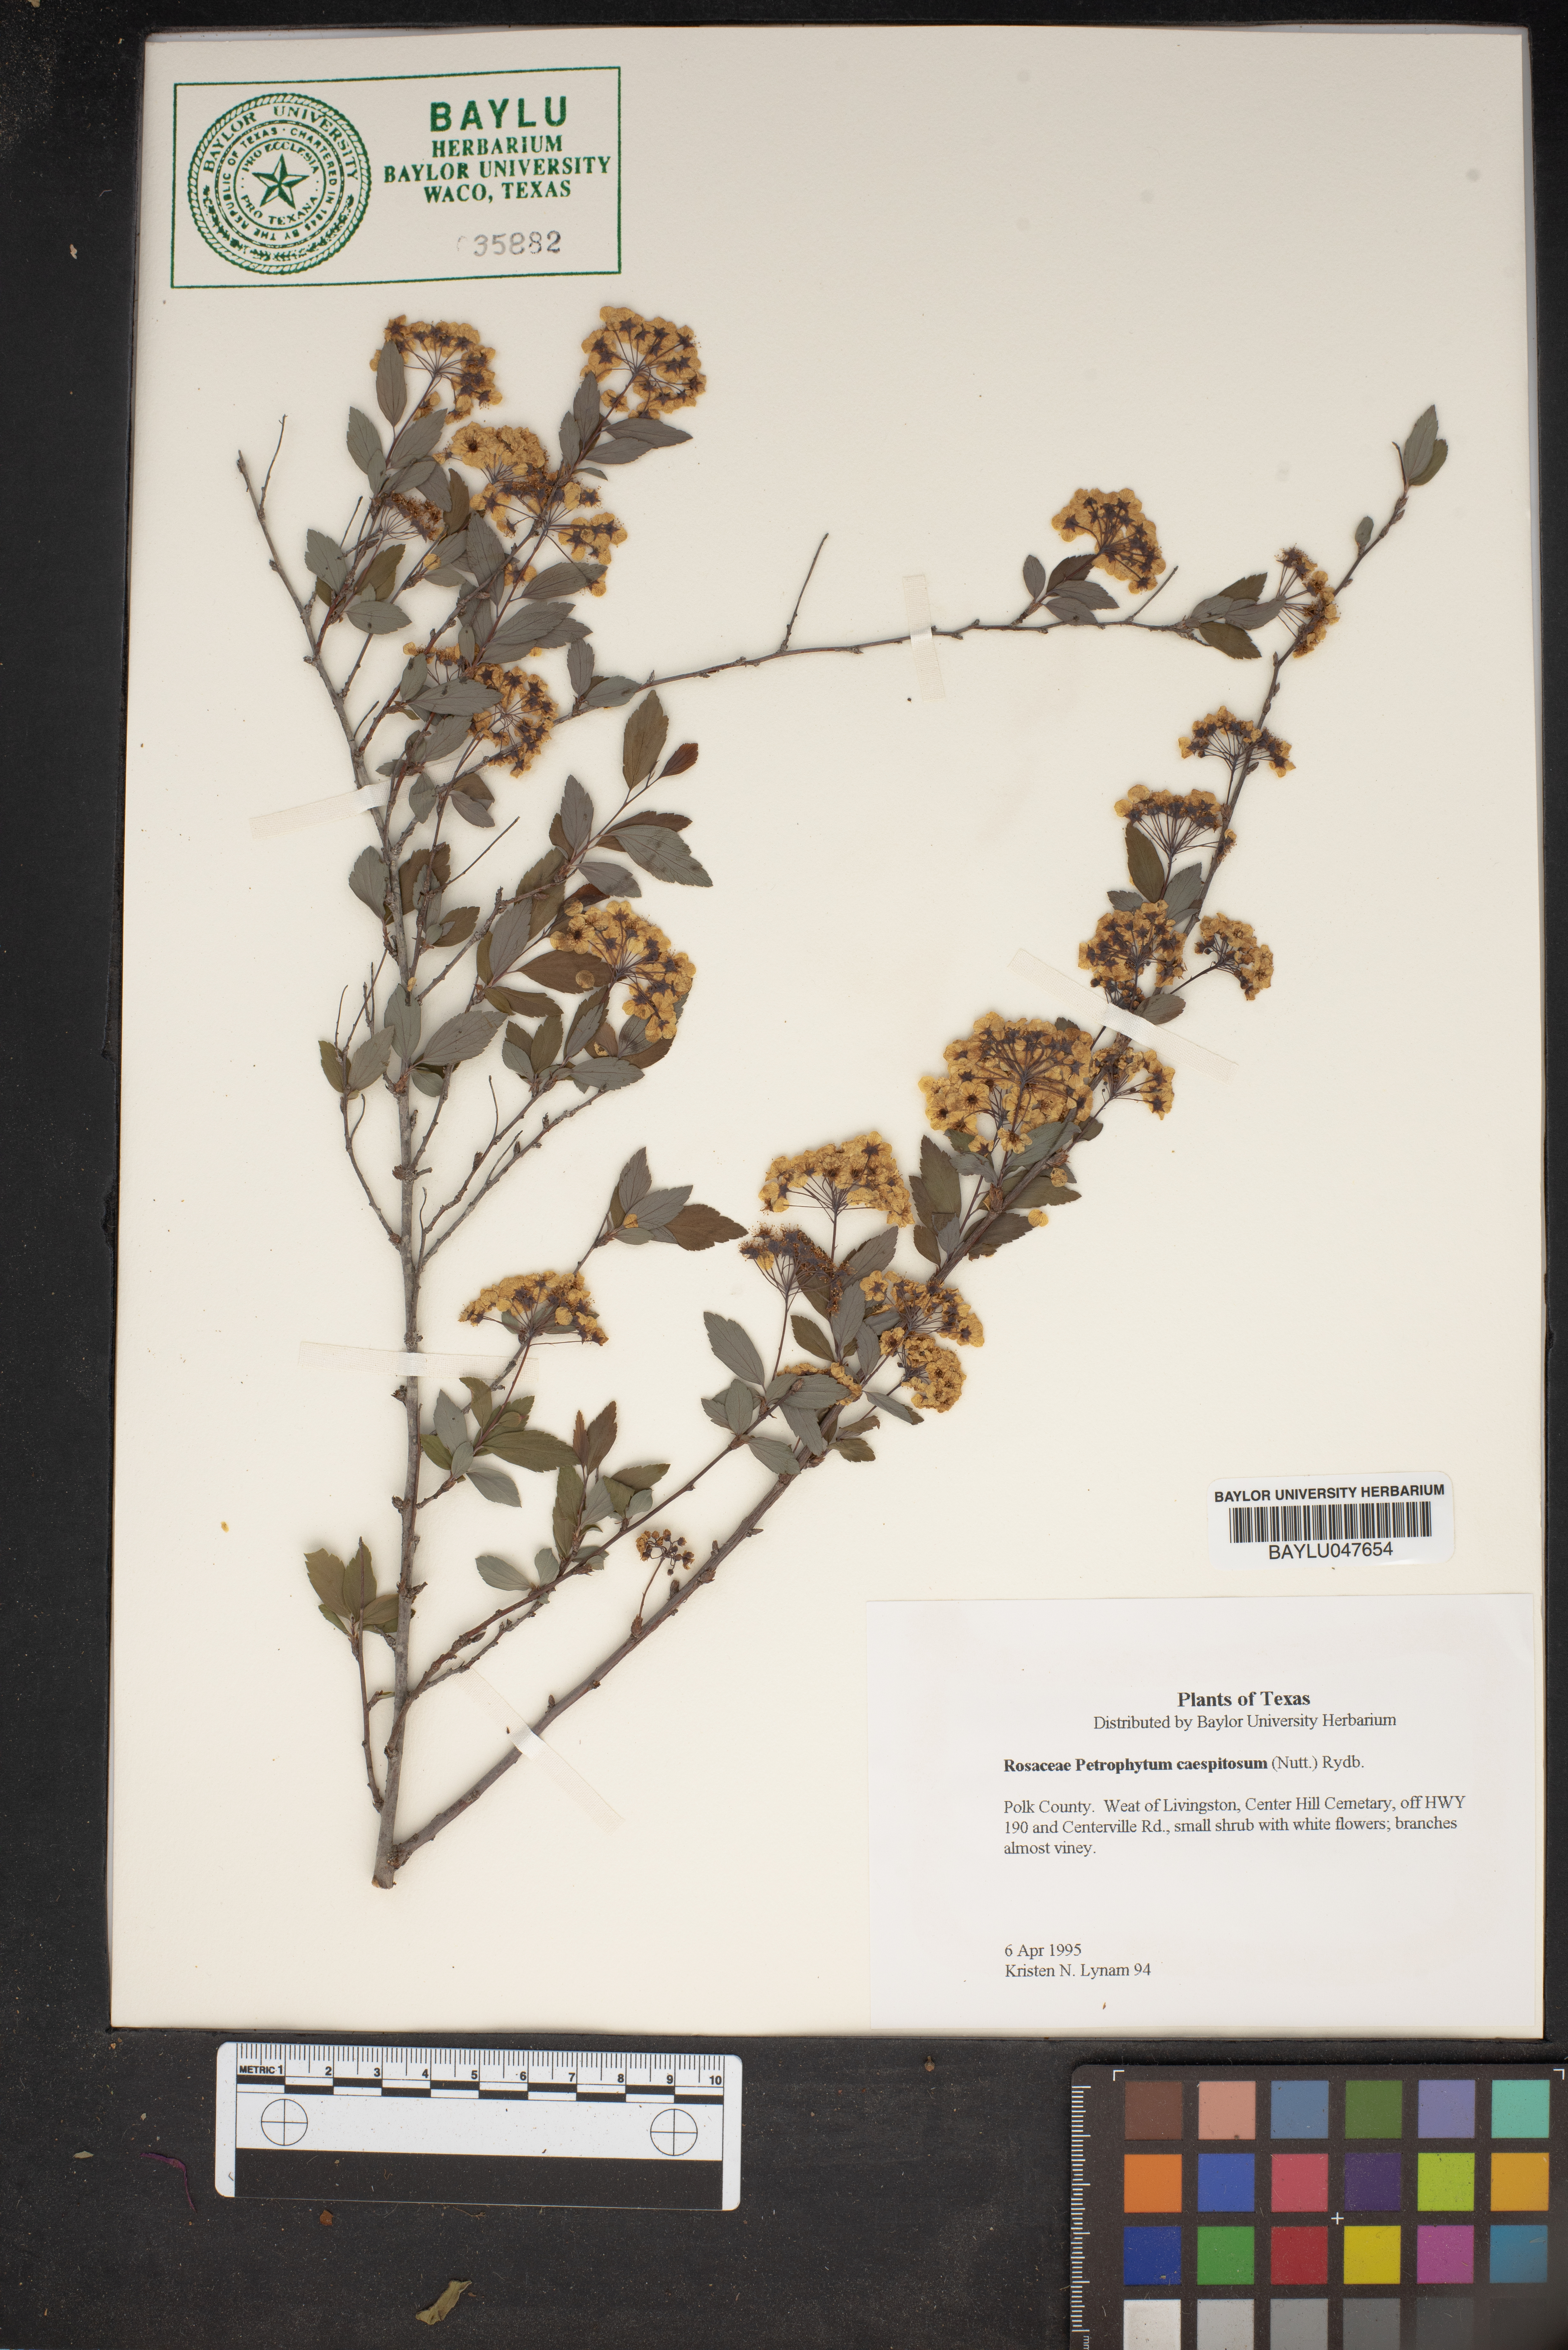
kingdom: Plantae
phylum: Tracheophyta
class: Magnoliopsida
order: Rosales
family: Rosaceae
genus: Petrophytum
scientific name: Petrophytum caespitosum
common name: Mat rockspirea
